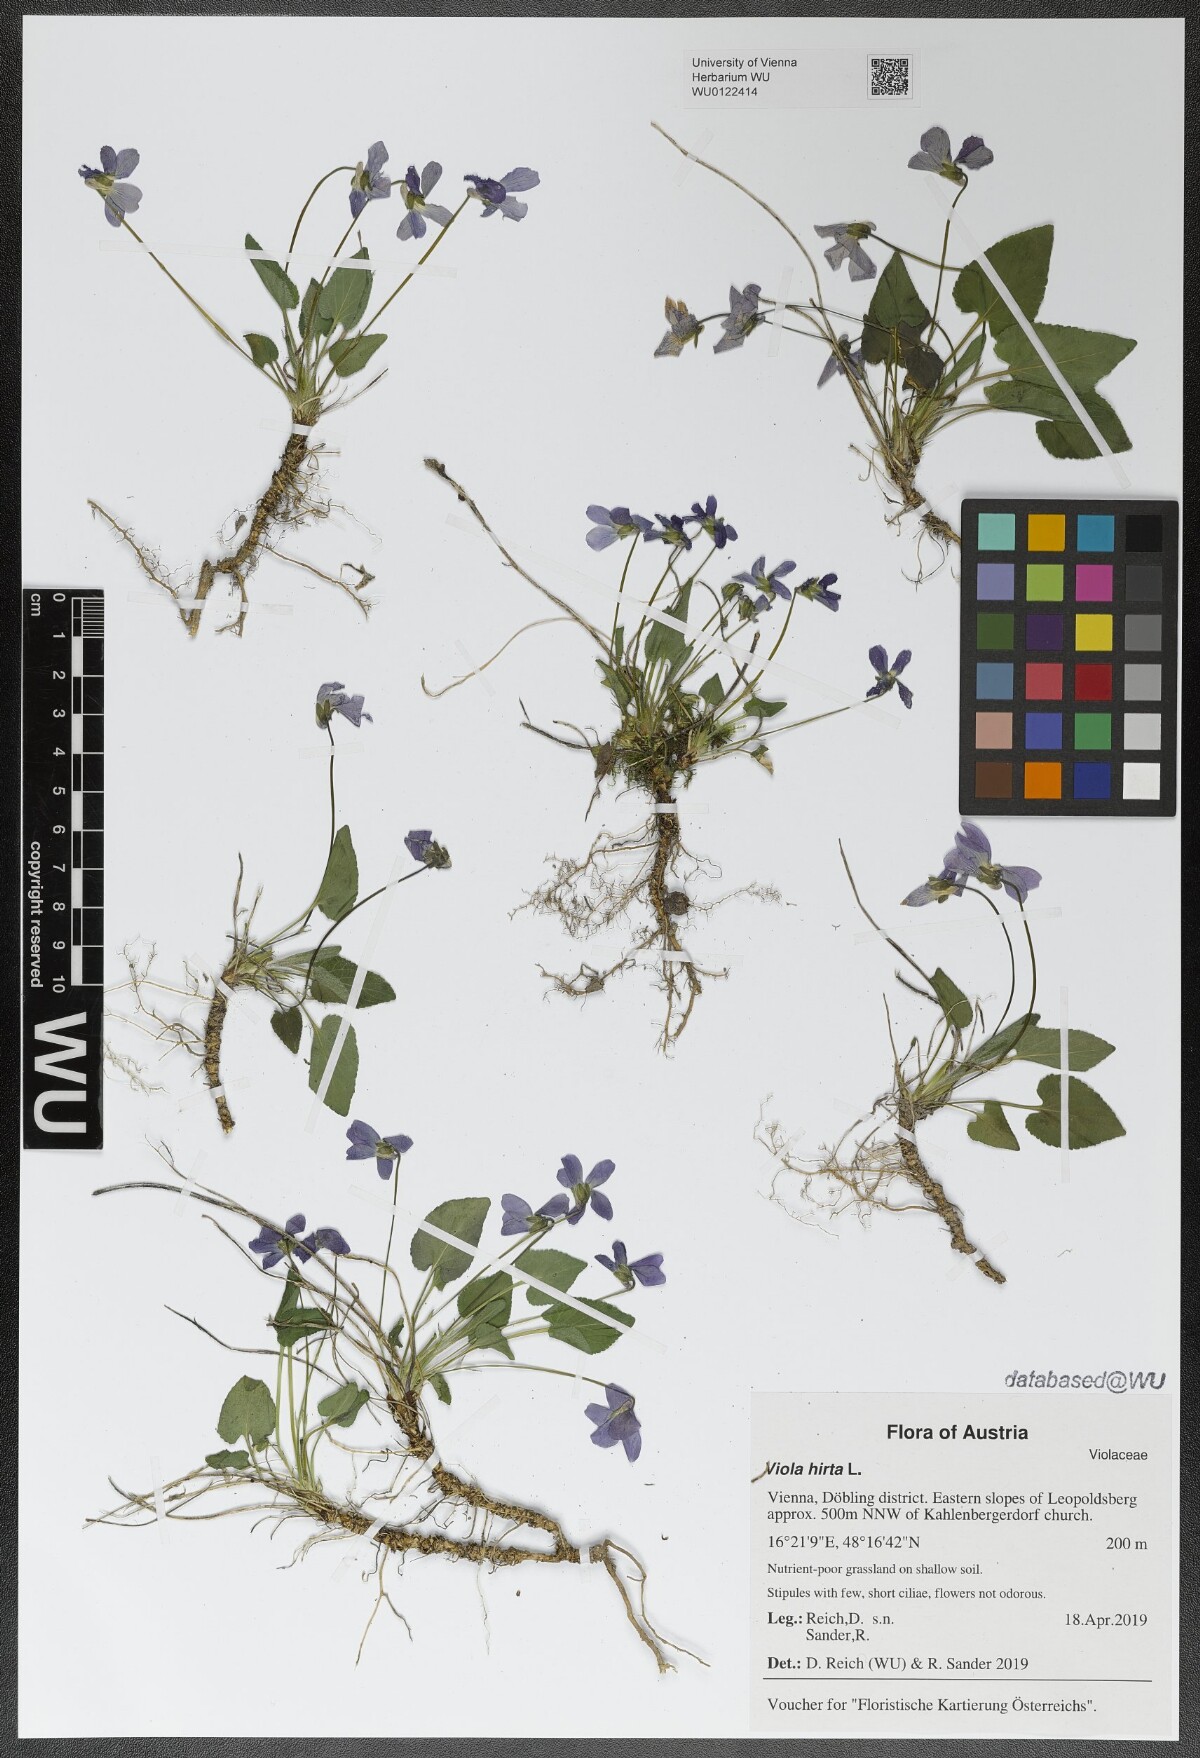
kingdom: Plantae
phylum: Tracheophyta
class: Magnoliopsida
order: Malpighiales
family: Violaceae
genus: Viola
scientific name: Viola hirta
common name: Hairy violet
